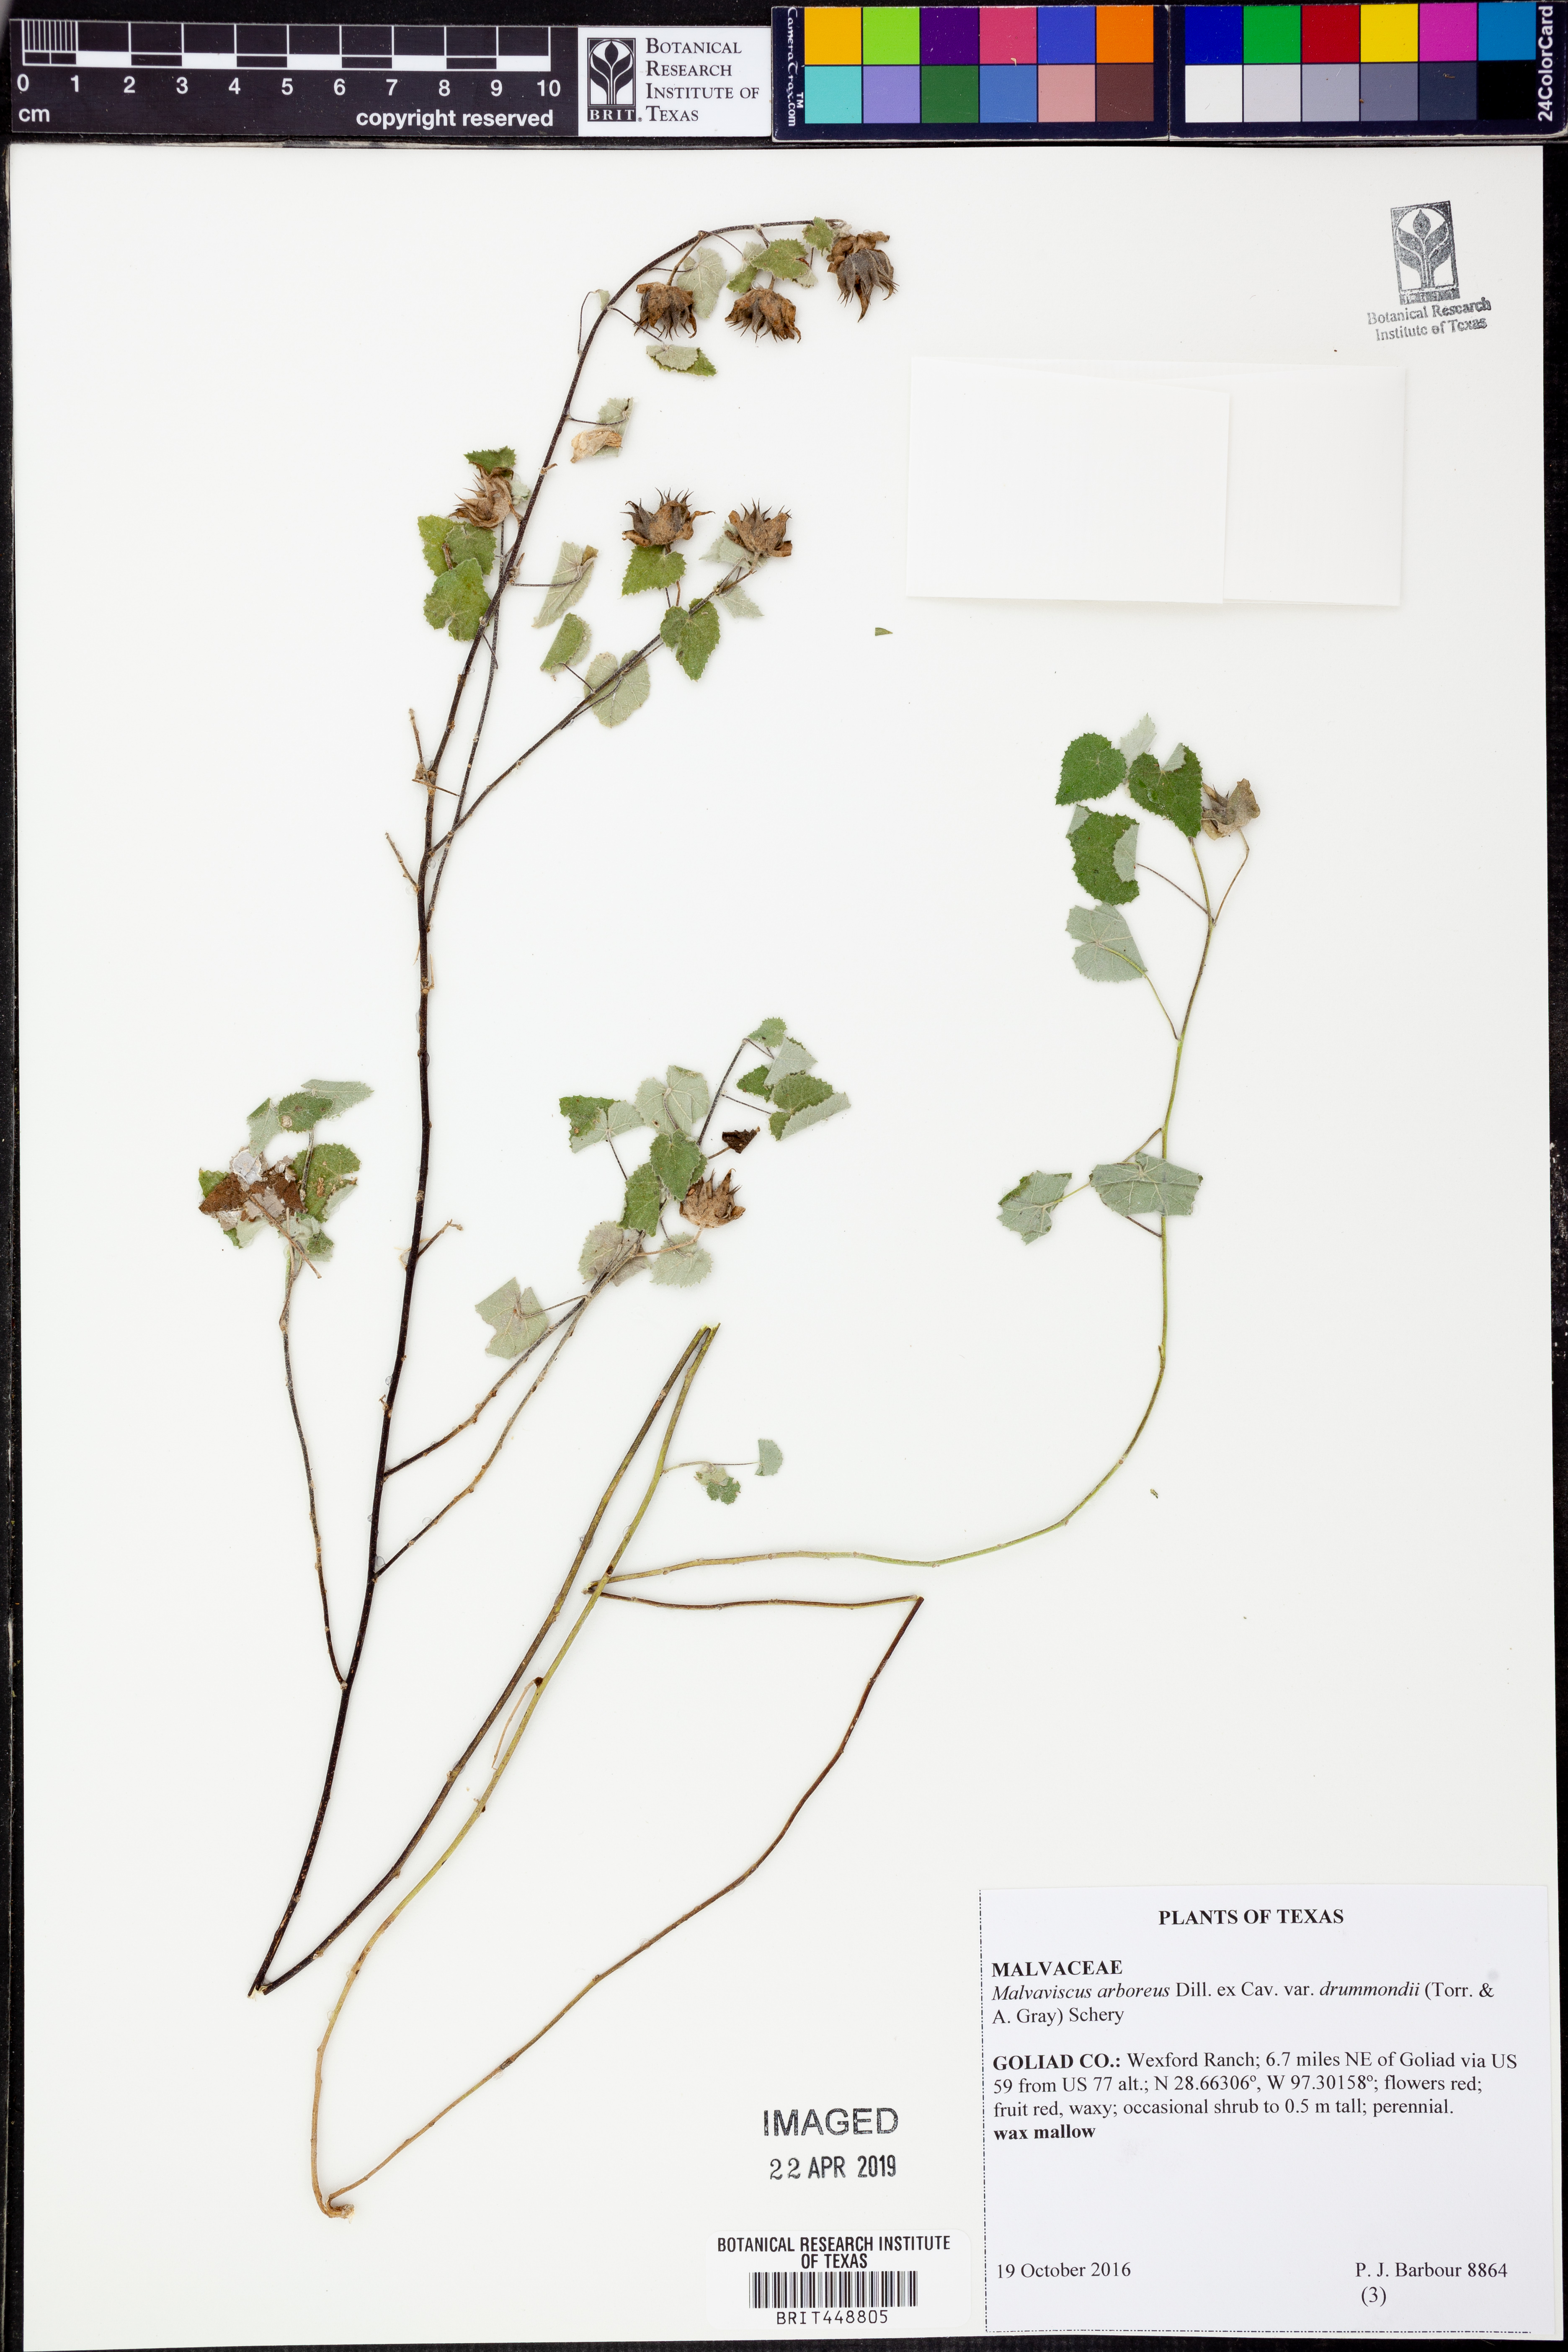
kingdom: Plantae
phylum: Tracheophyta
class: Magnoliopsida
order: Malvales
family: Malvaceae
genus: Malvaviscus
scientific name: Malvaviscus arboreus
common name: Wax mallow
